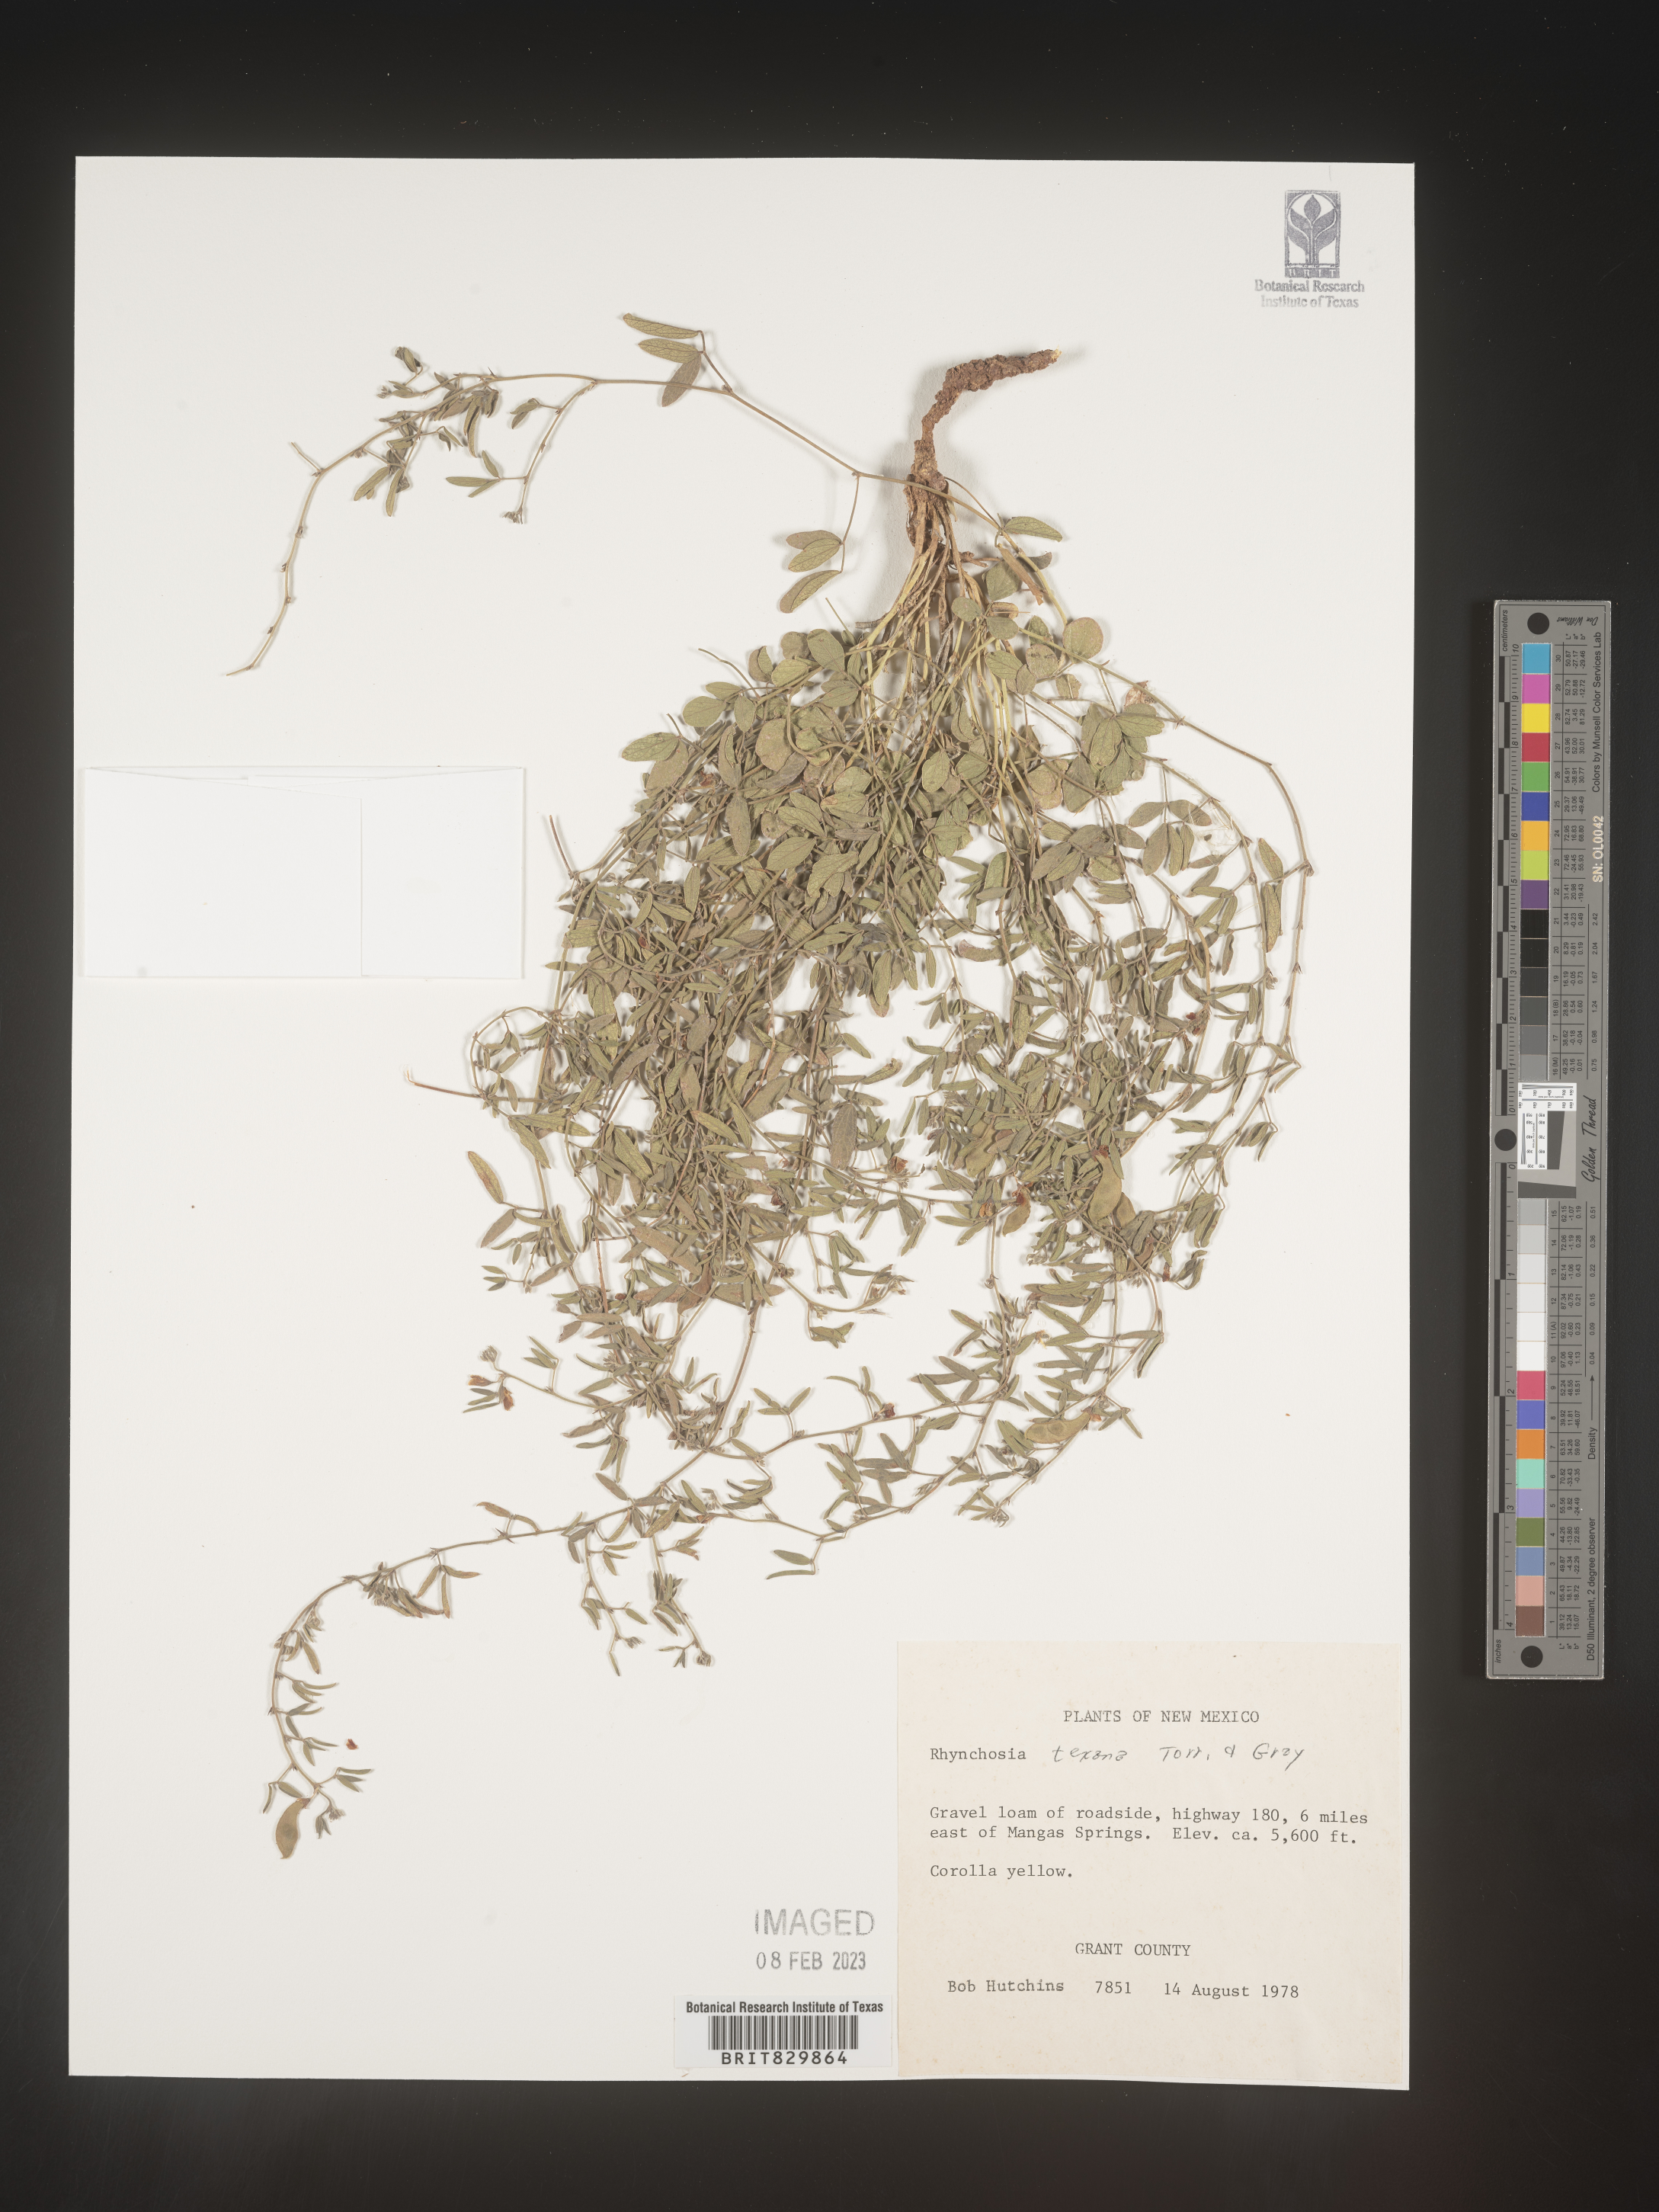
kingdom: Plantae
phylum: Tracheophyta
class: Magnoliopsida
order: Fabales
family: Fabaceae
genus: Rhynchosia
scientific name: Rhynchosia senna
